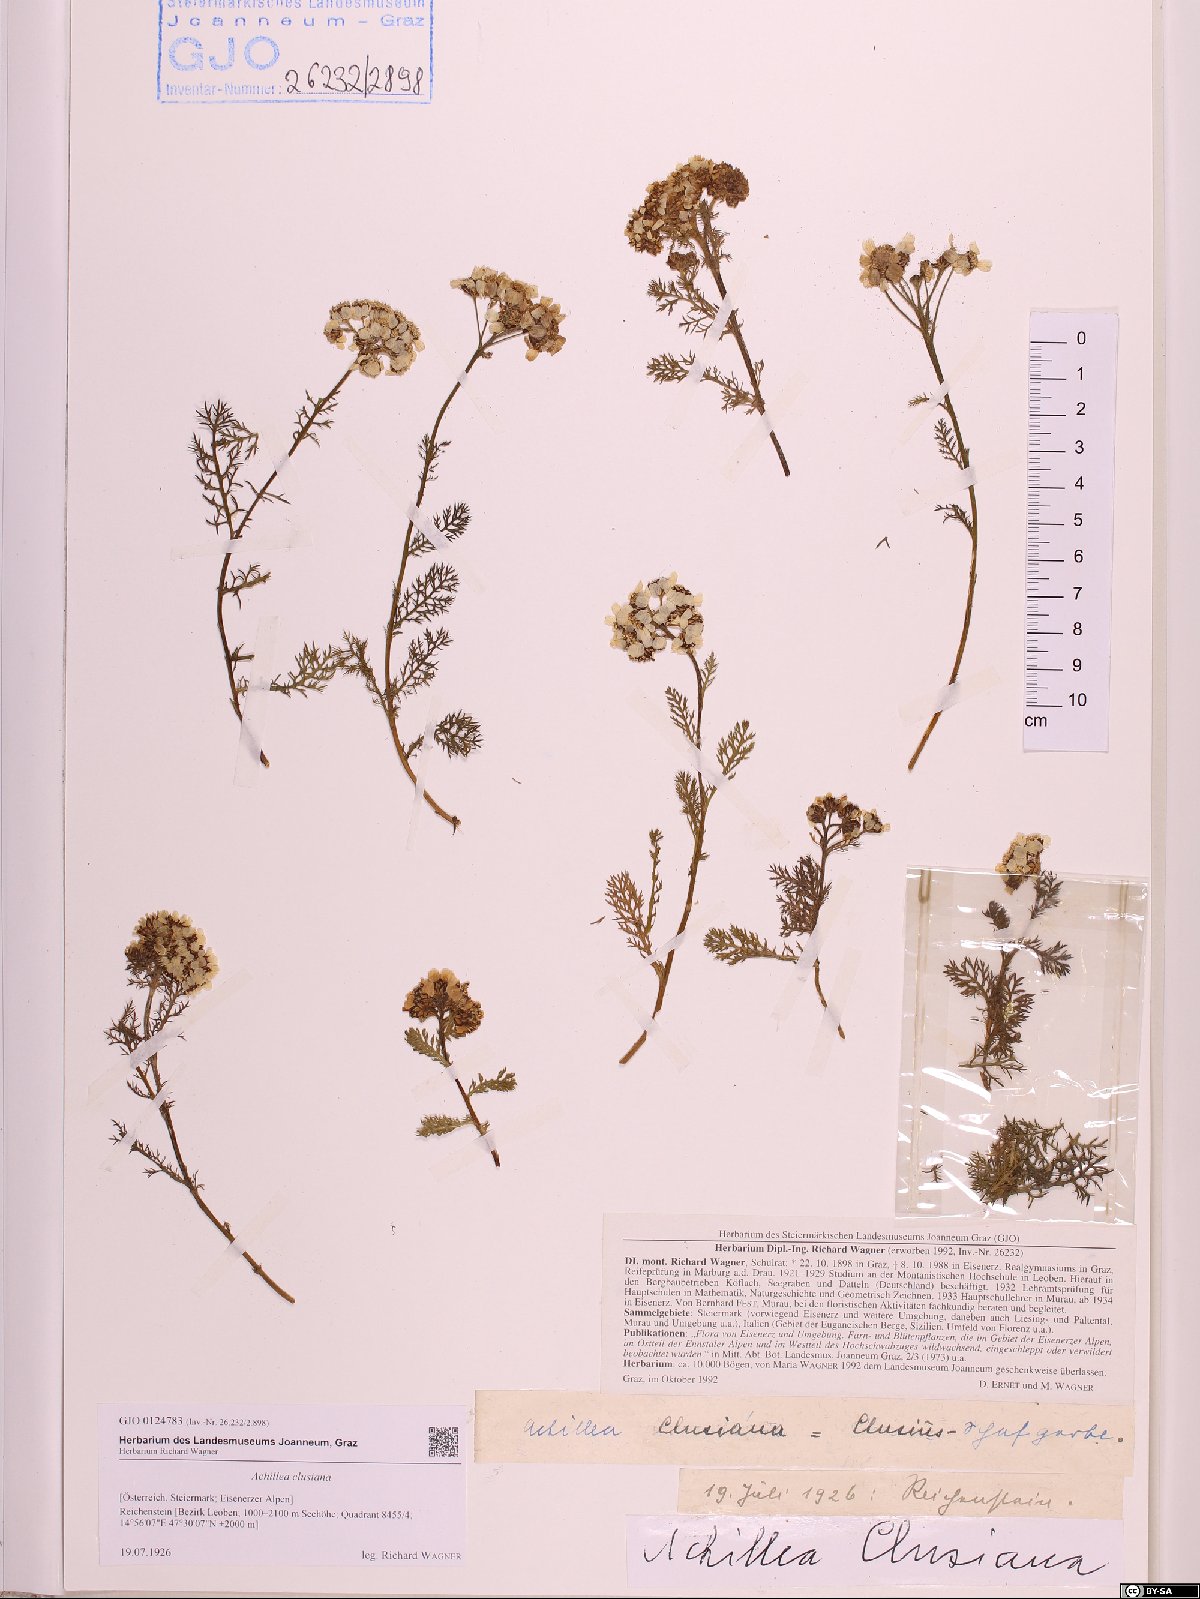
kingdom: Plantae
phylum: Tracheophyta
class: Magnoliopsida
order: Asterales
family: Asteraceae
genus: Achillea
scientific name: Achillea clusiana
